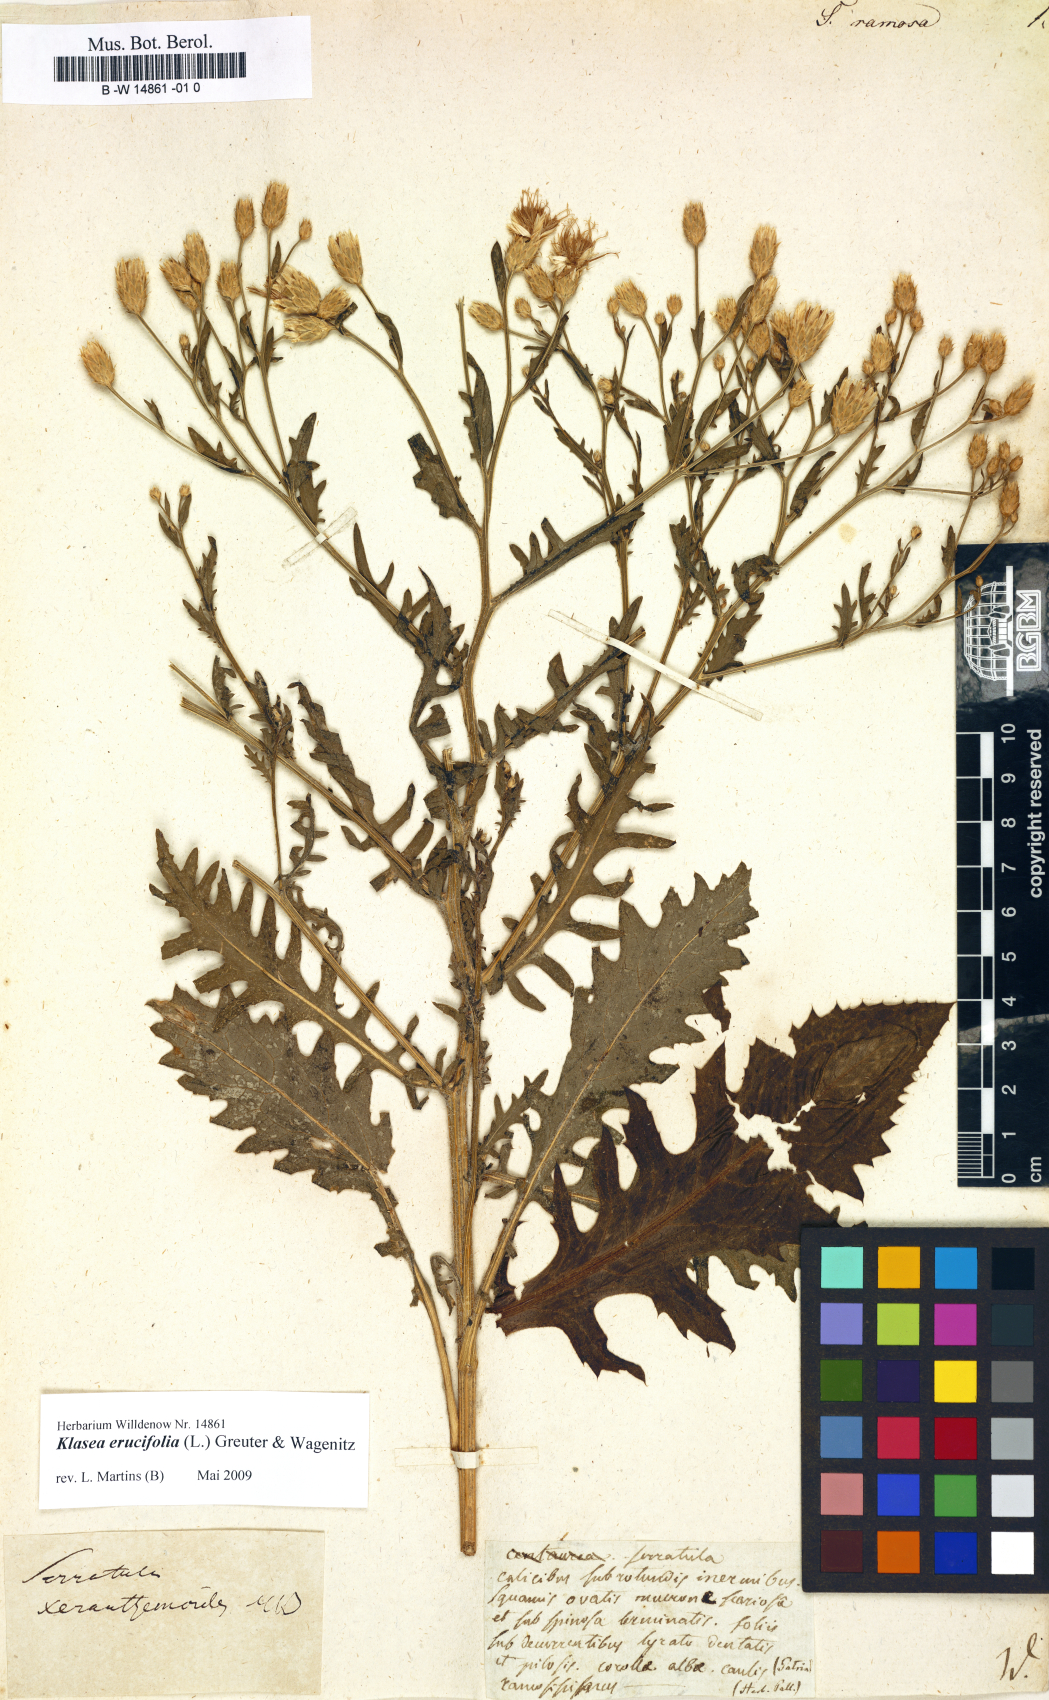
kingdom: Plantae
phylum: Tracheophyta
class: Magnoliopsida
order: Asterales
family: Asteraceae
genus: Serratula
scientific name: Serratula
